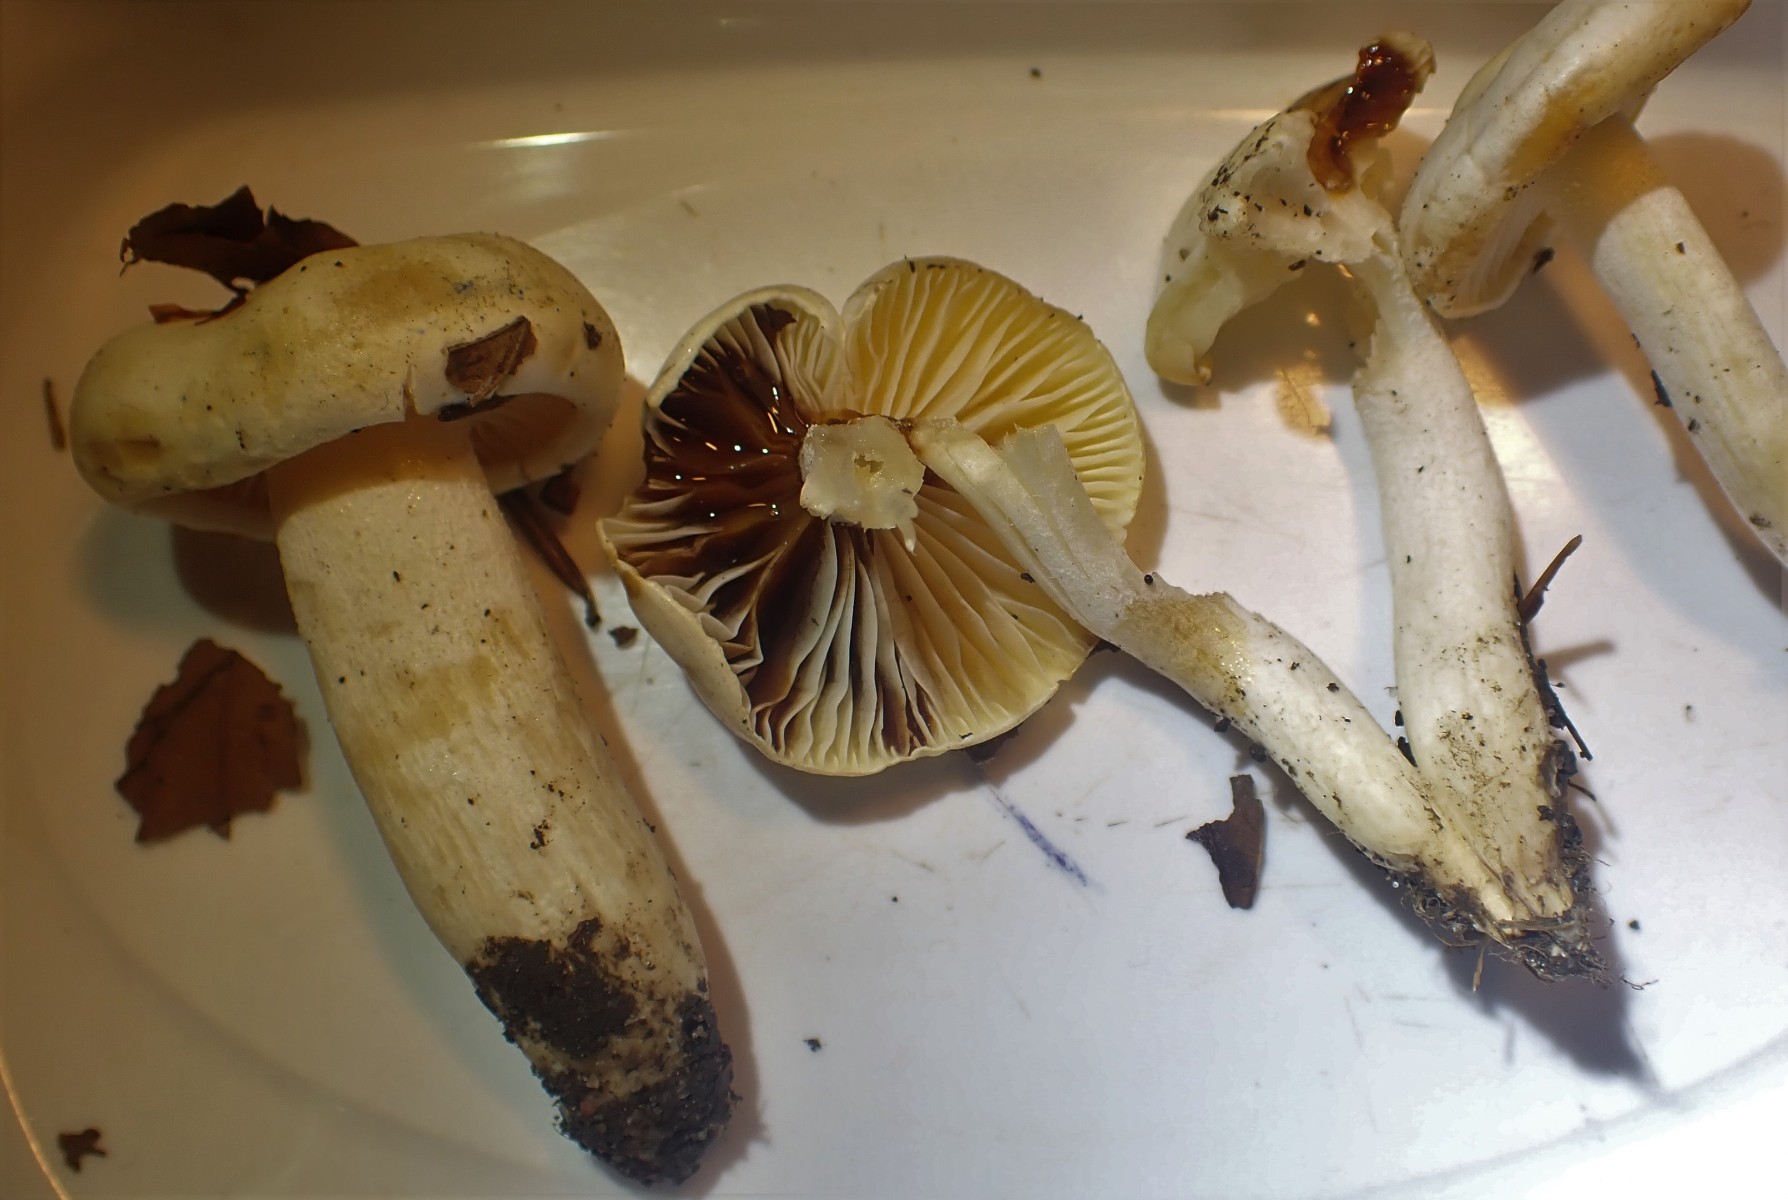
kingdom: Fungi
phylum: Basidiomycota
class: Agaricomycetes
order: Agaricales
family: Hygrophoraceae
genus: Hygrophorus
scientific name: Hygrophorus discoxanthus
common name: ildelugtende sneglehat
